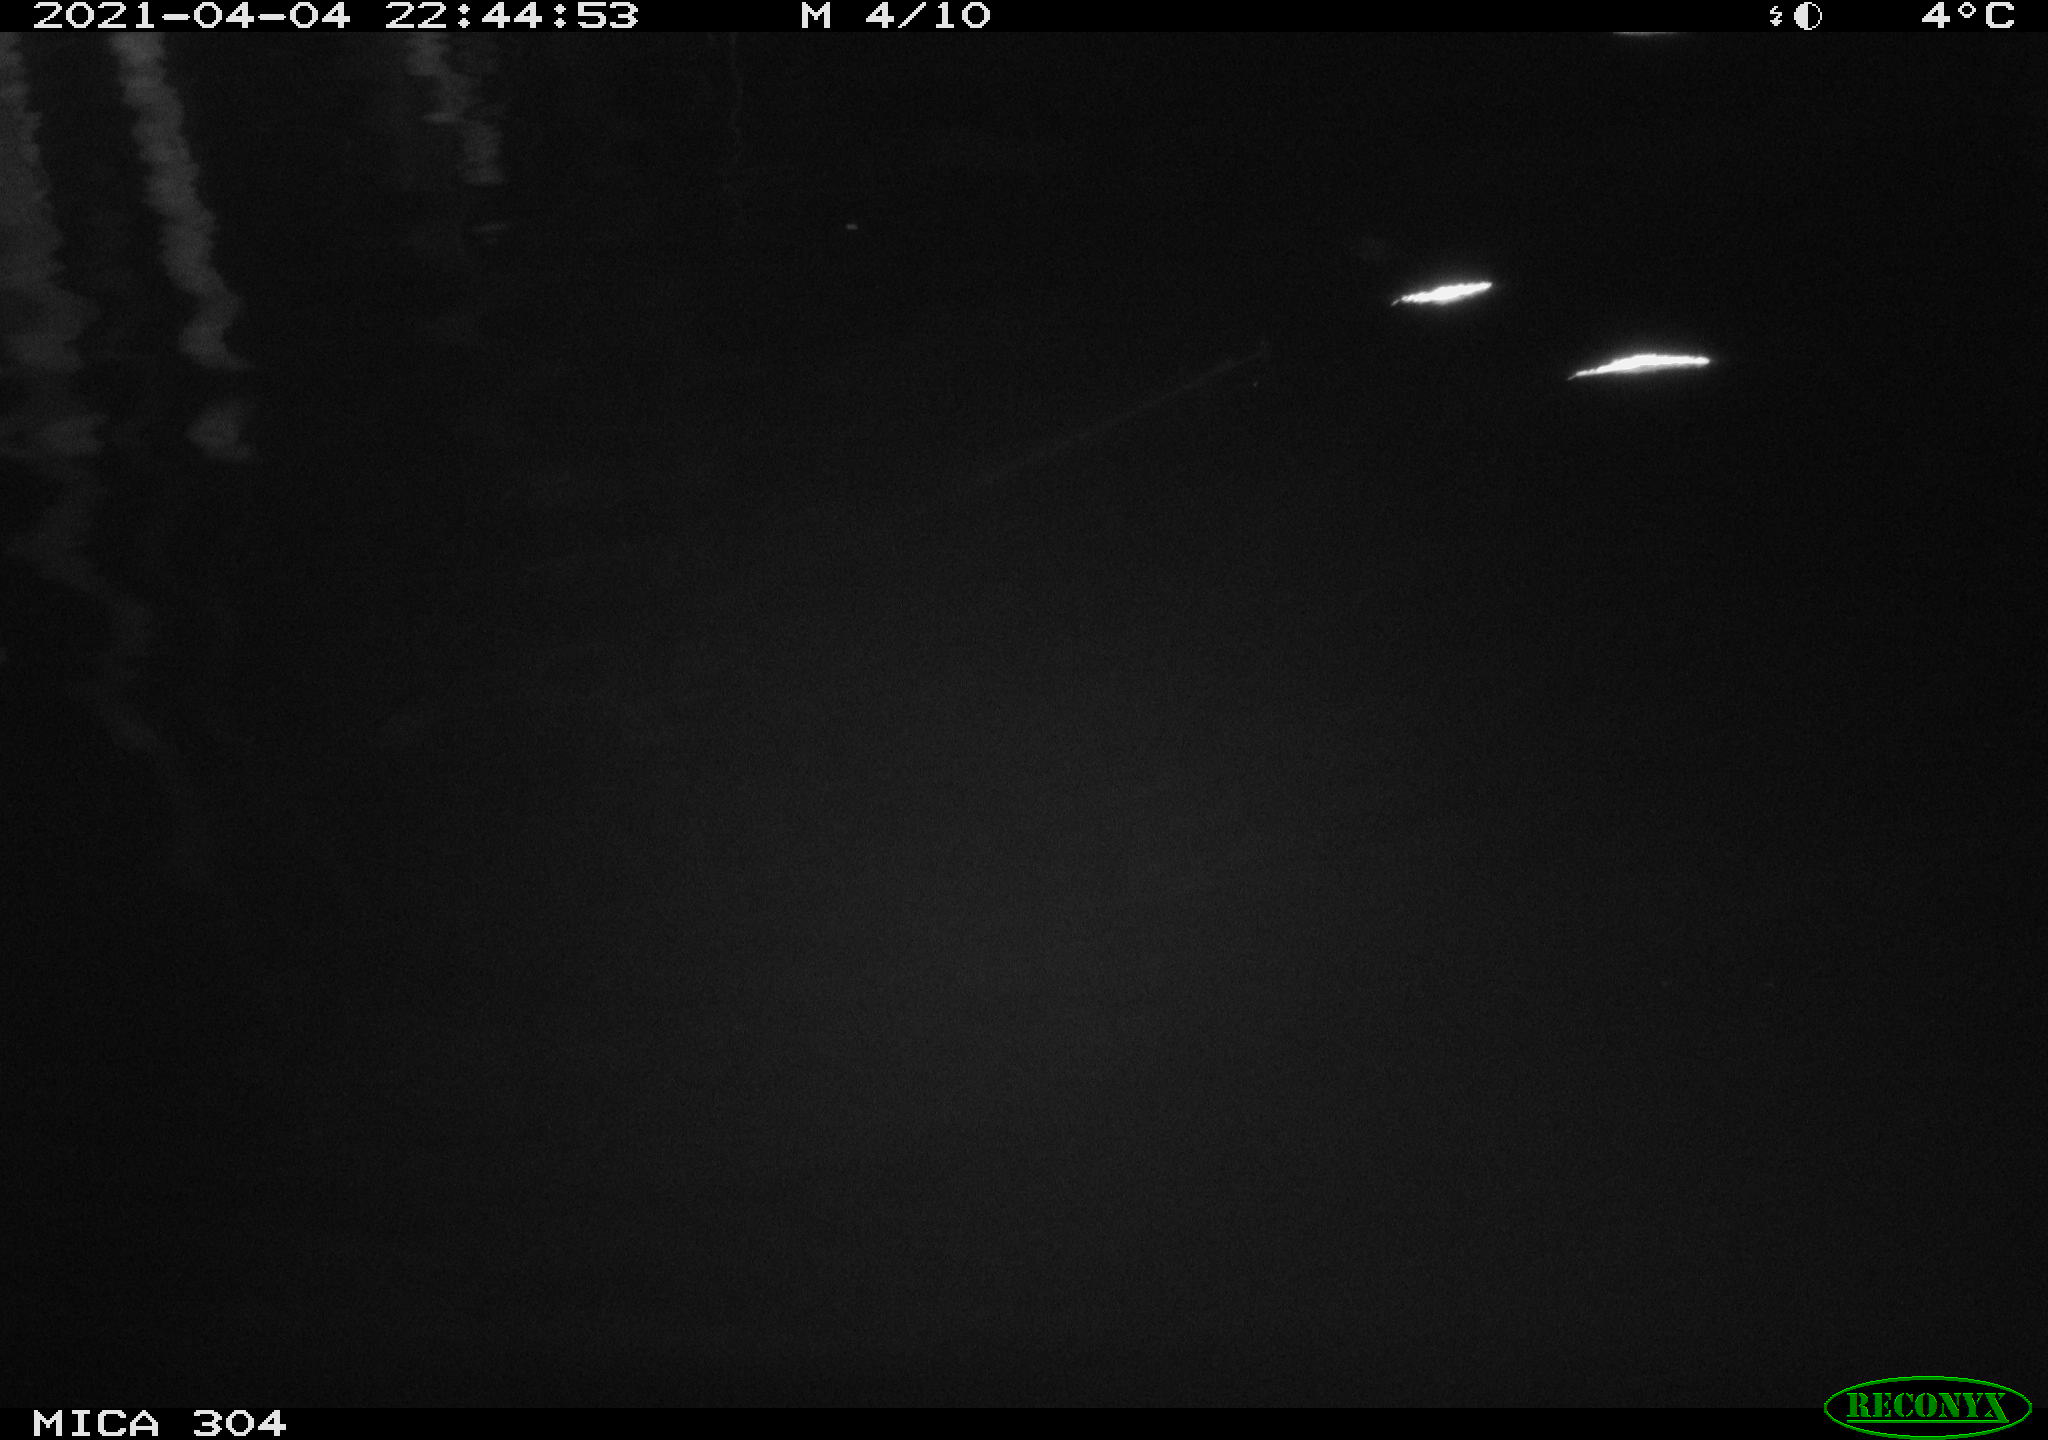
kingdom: Animalia
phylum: Chordata
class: Aves
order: Anseriformes
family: Anatidae
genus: Anas
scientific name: Anas
